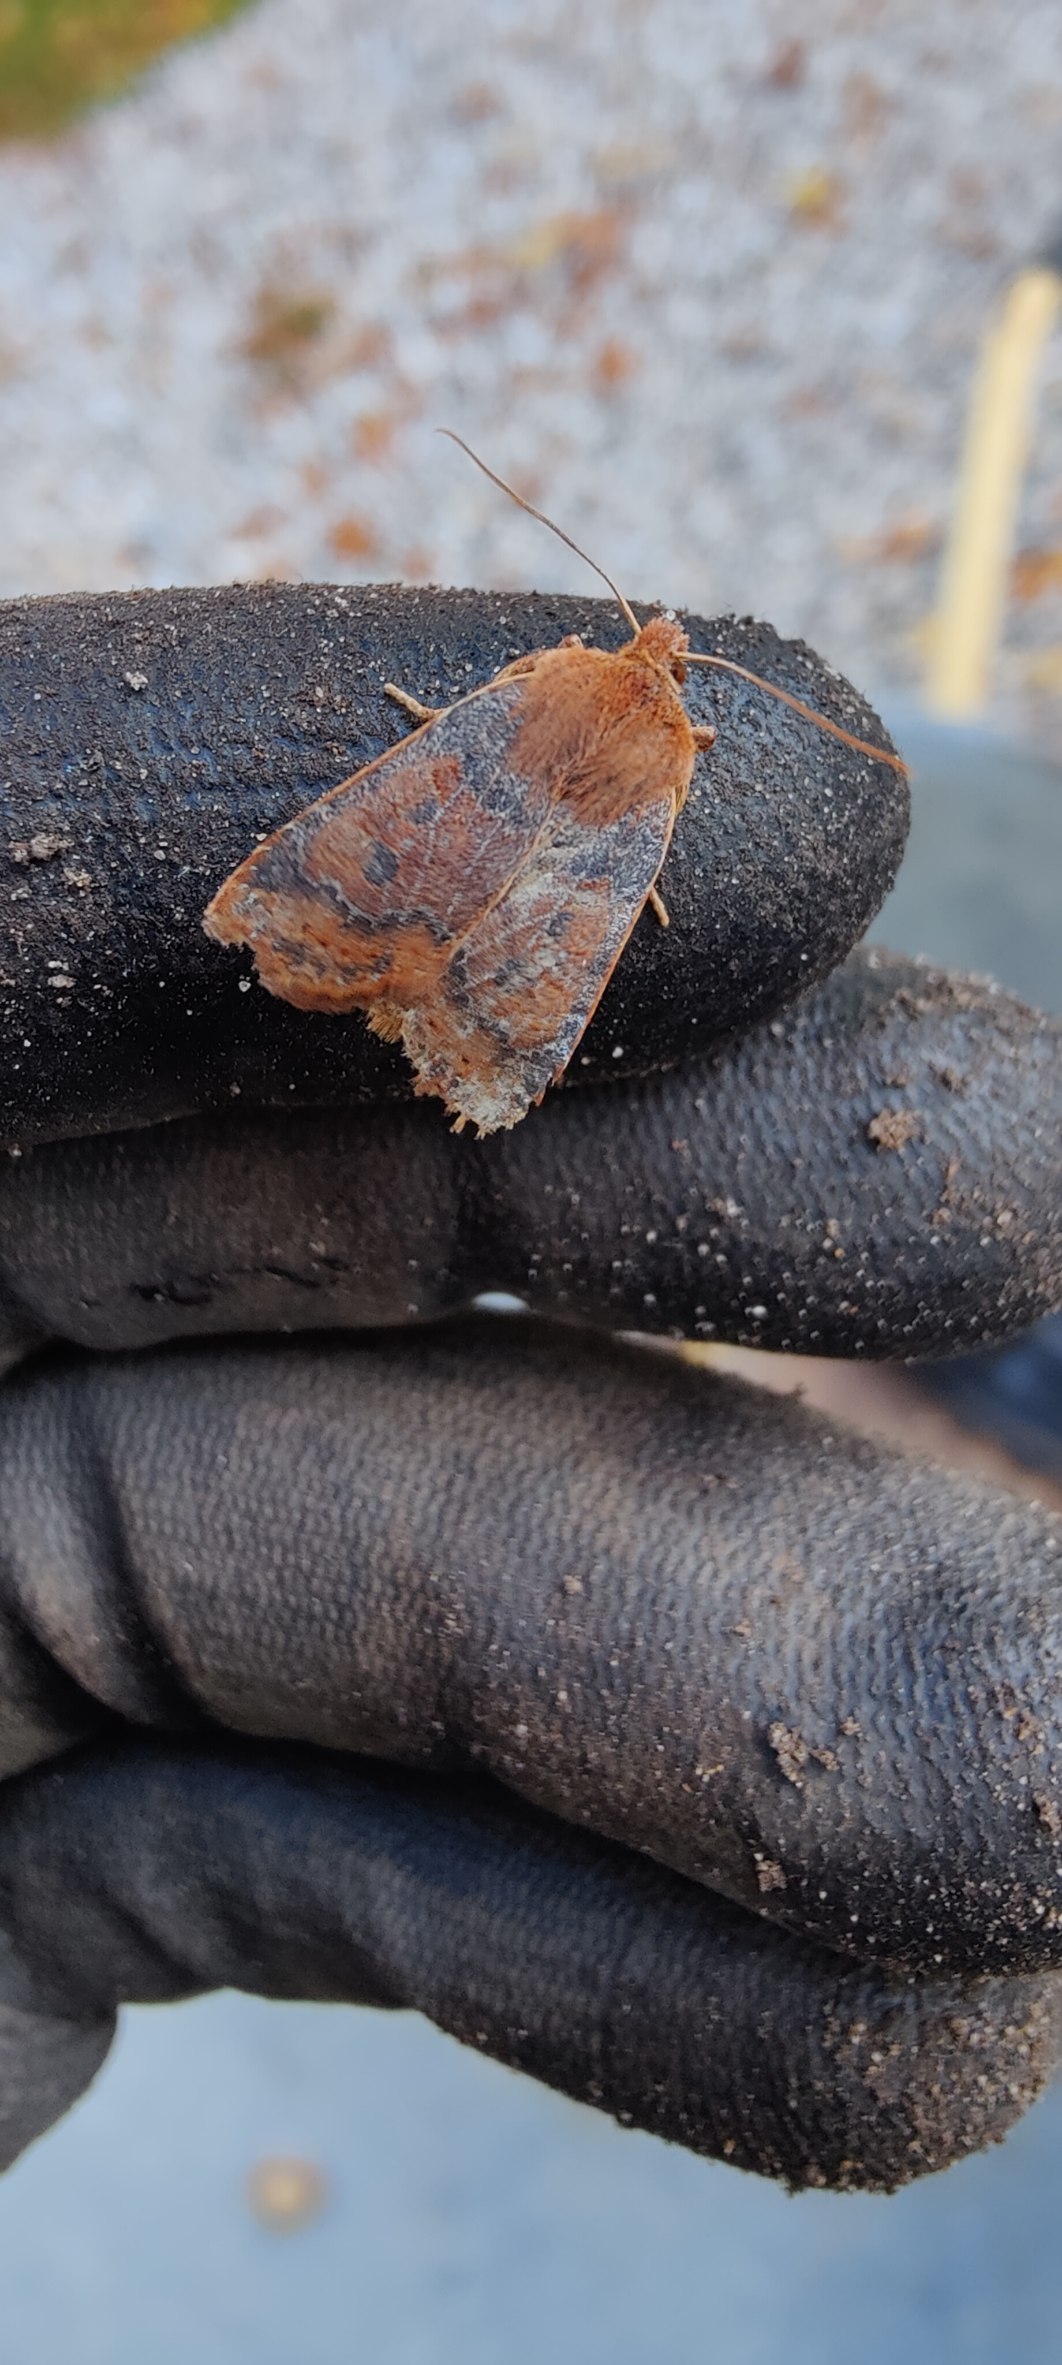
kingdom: Animalia
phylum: Arthropoda
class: Insecta
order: Lepidoptera
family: Noctuidae
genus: Conistra
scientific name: Conistra vaccinii
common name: Blåbærugle
